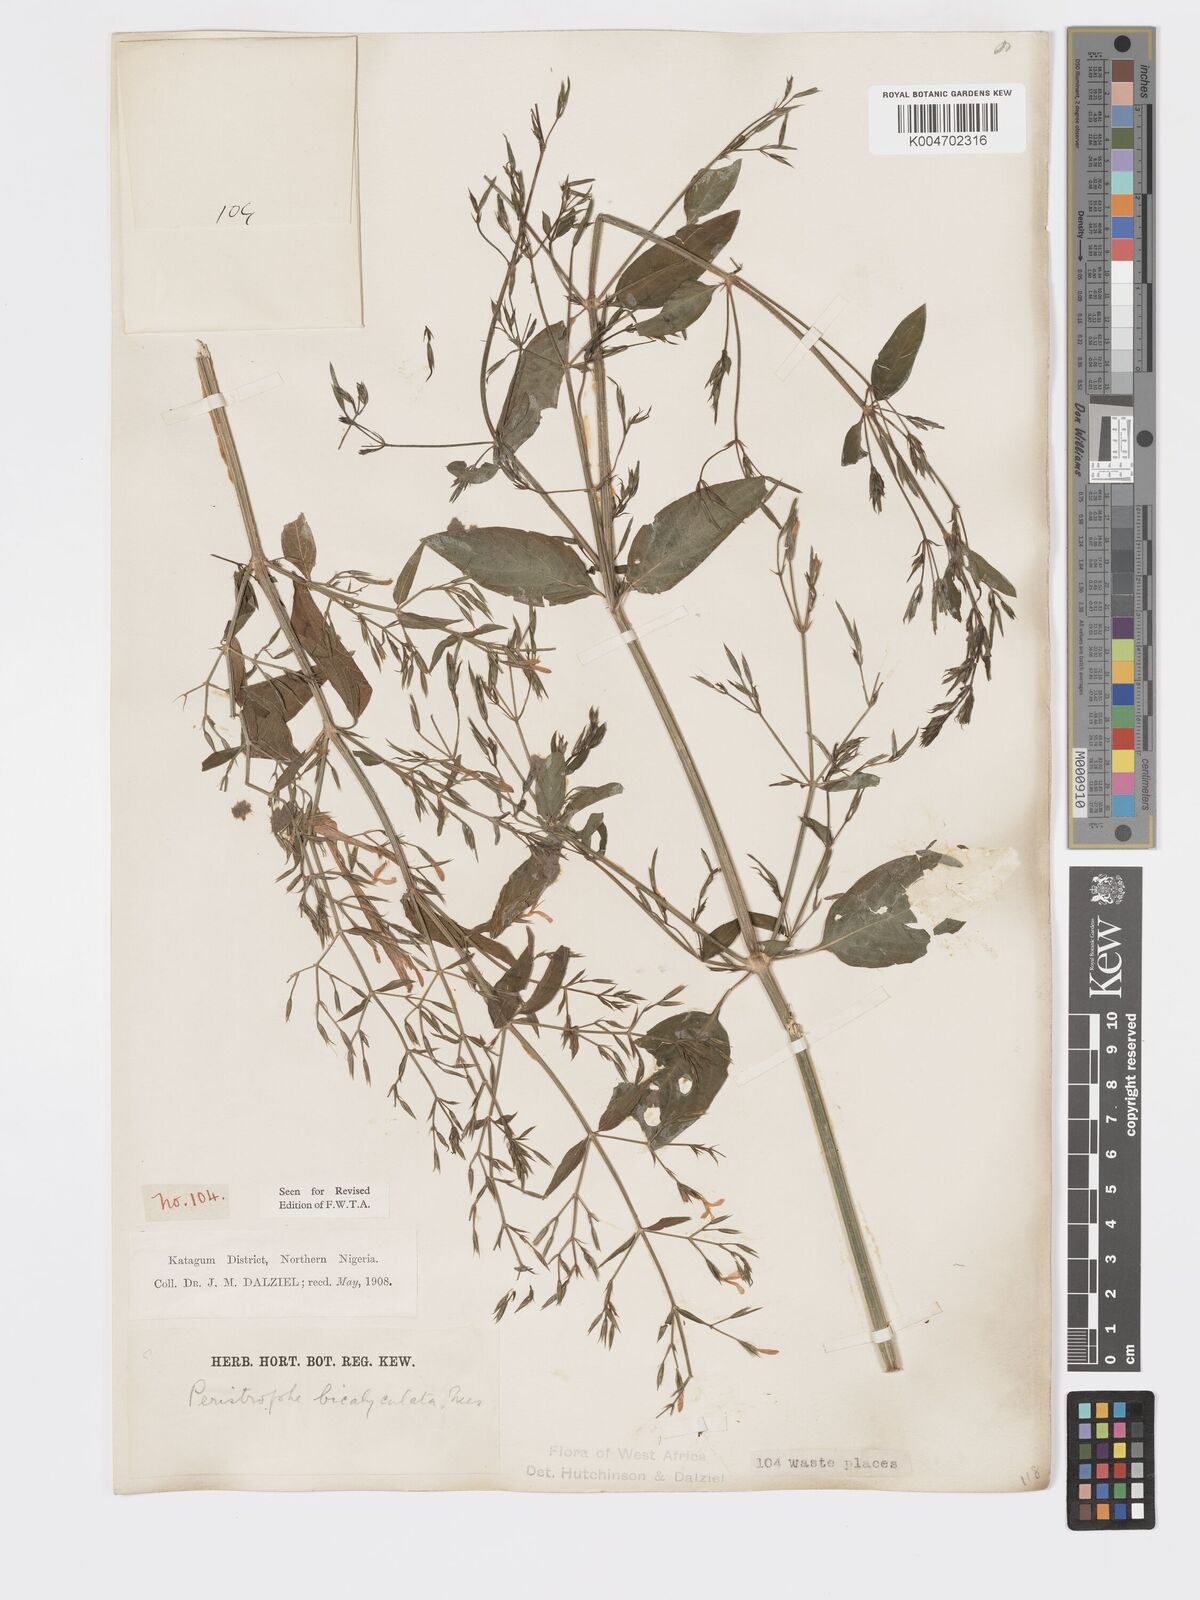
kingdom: Plantae
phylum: Tracheophyta
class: Magnoliopsida
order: Lamiales
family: Acanthaceae
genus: Dicliptera
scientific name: Dicliptera paniculata
